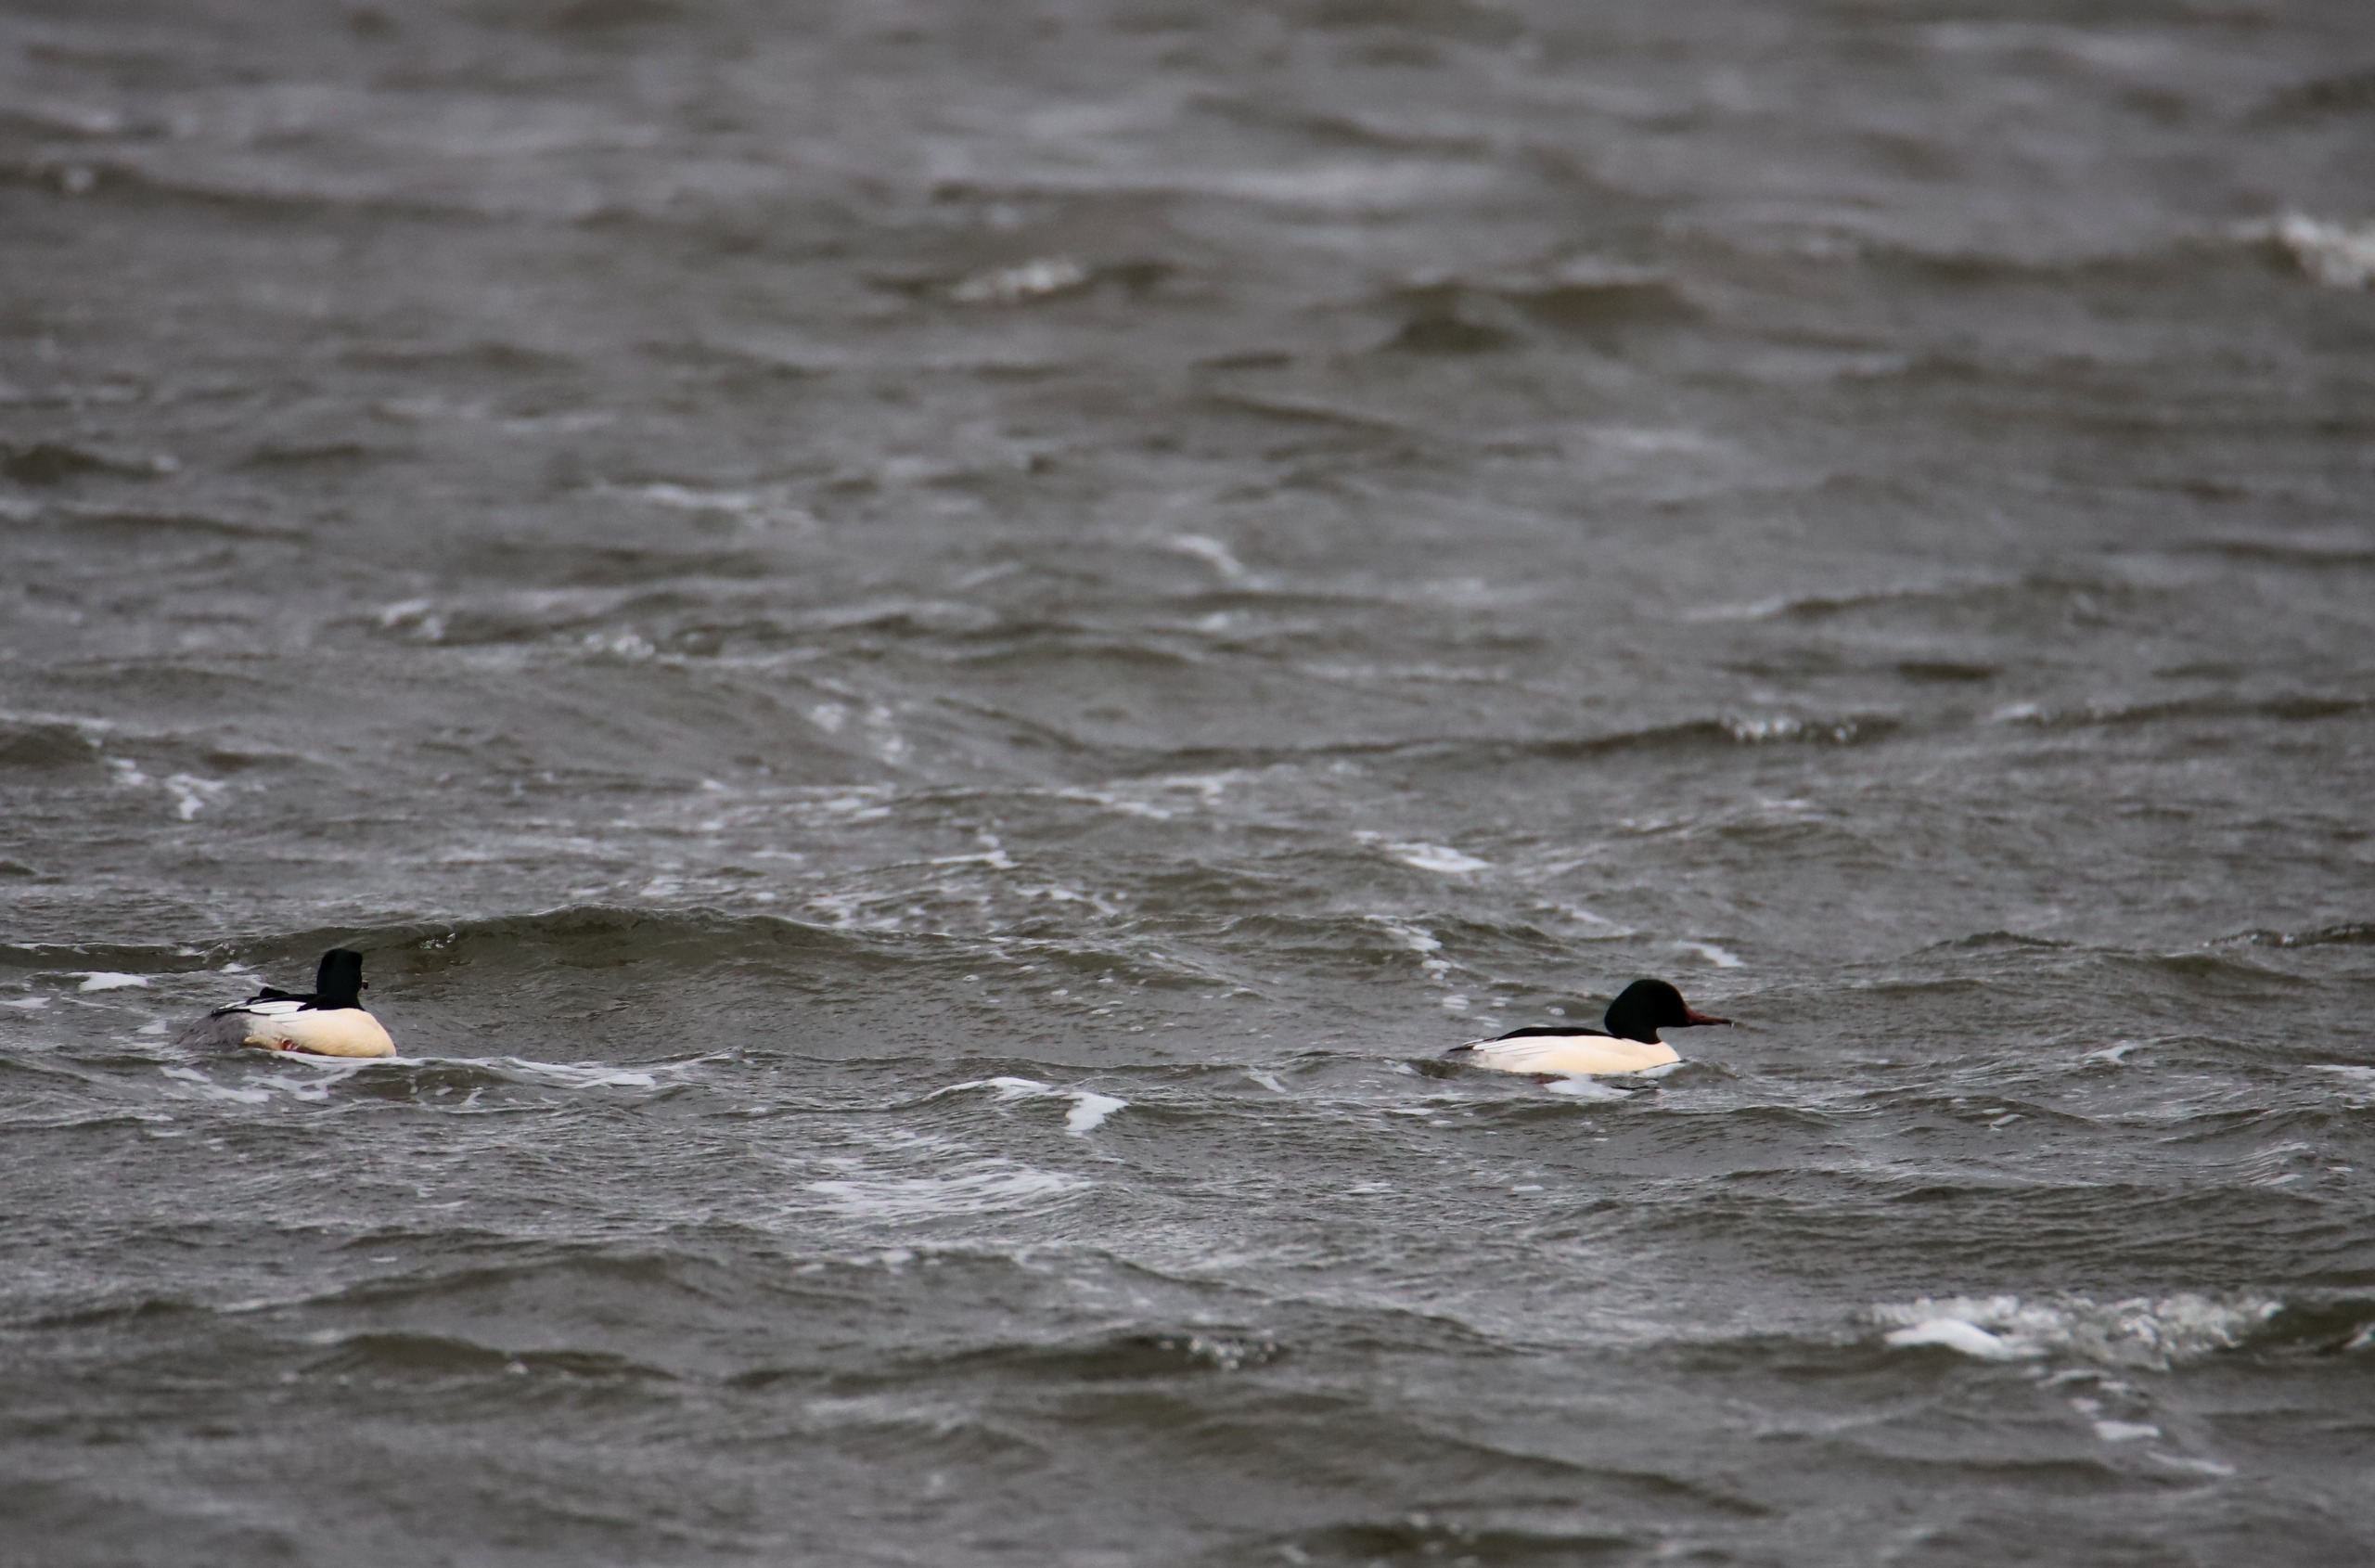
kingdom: Animalia
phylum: Chordata
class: Aves
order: Anseriformes
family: Anatidae
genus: Mergus
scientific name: Mergus merganser
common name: Stor skallesluger
